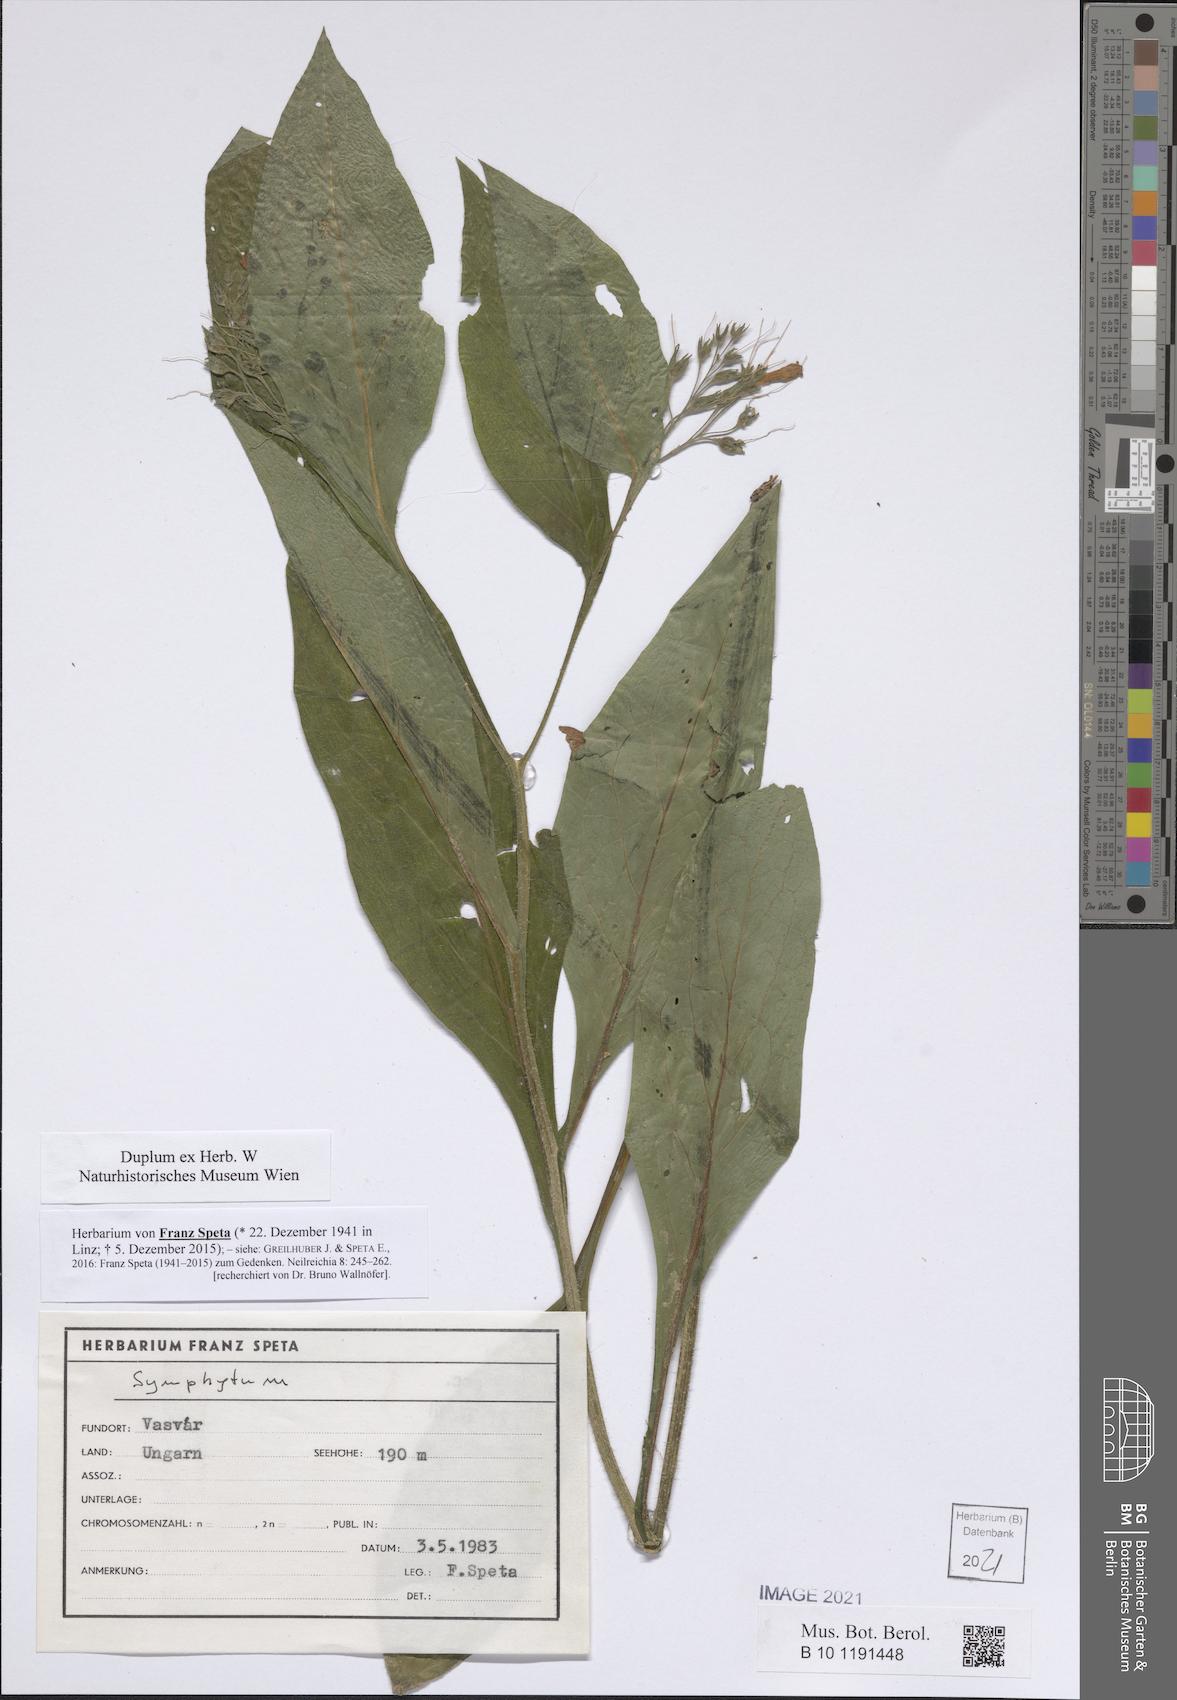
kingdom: Plantae
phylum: Tracheophyta
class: Magnoliopsida
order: Boraginales
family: Boraginaceae
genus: Symphytum
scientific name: Symphytum
